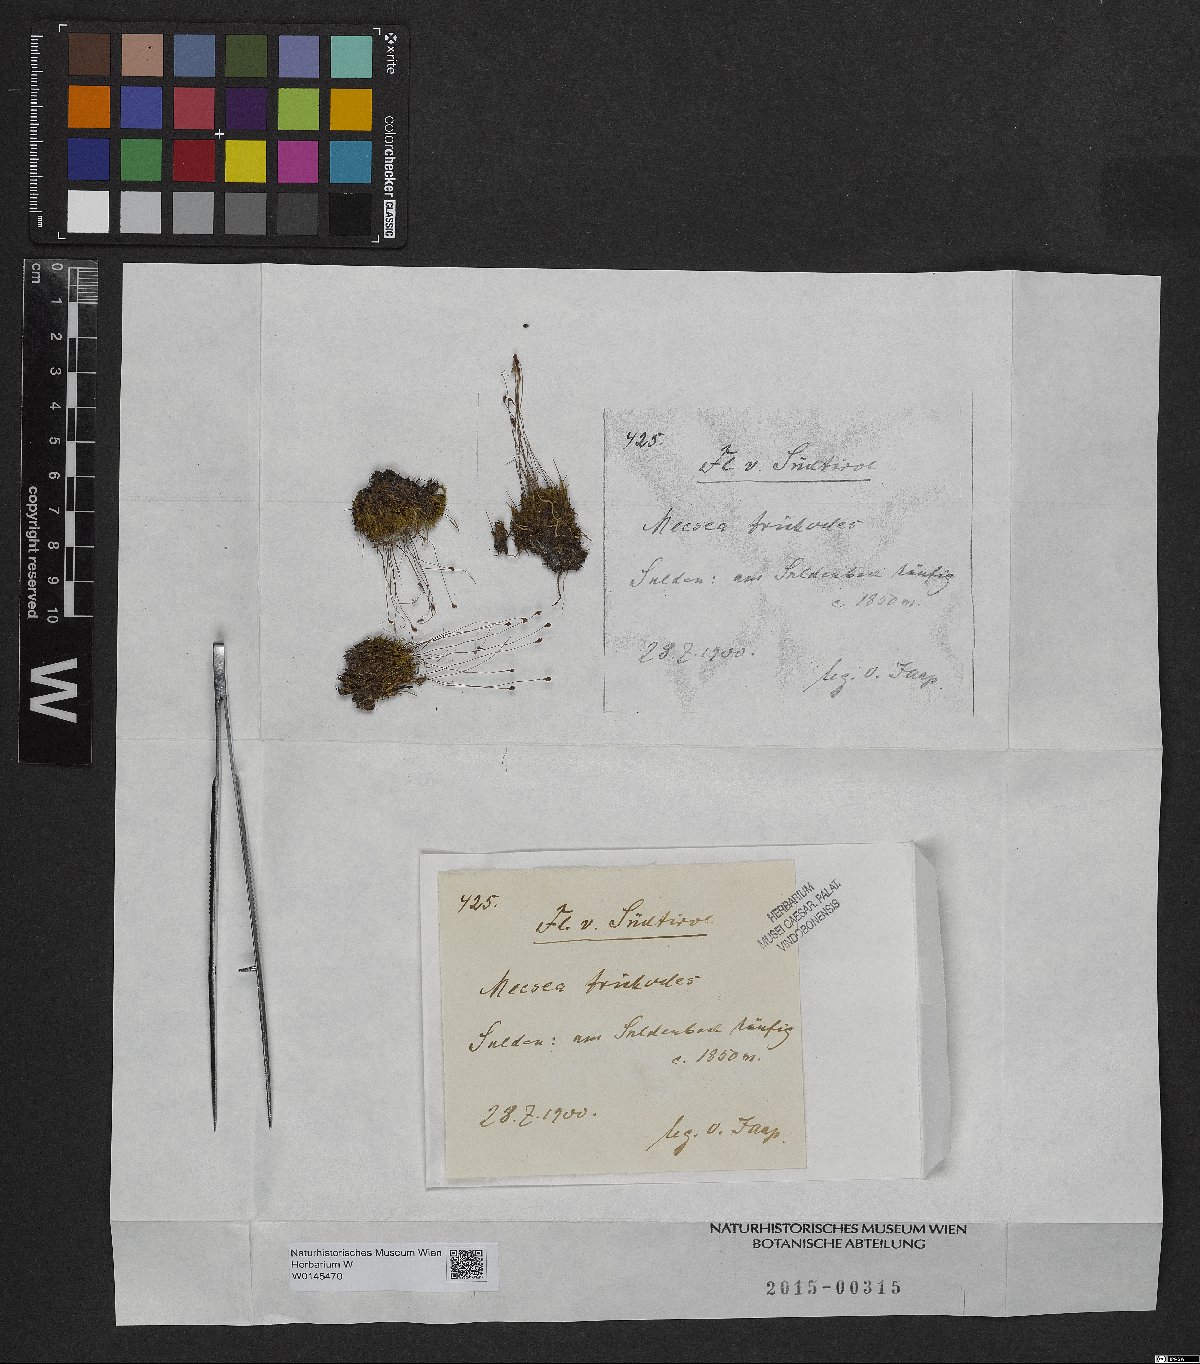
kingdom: Plantae
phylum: Bryophyta
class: Bryopsida
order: Splachnales
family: Meesiaceae
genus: Meesia
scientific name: Meesia uliginosa
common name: Capillary thread moss
